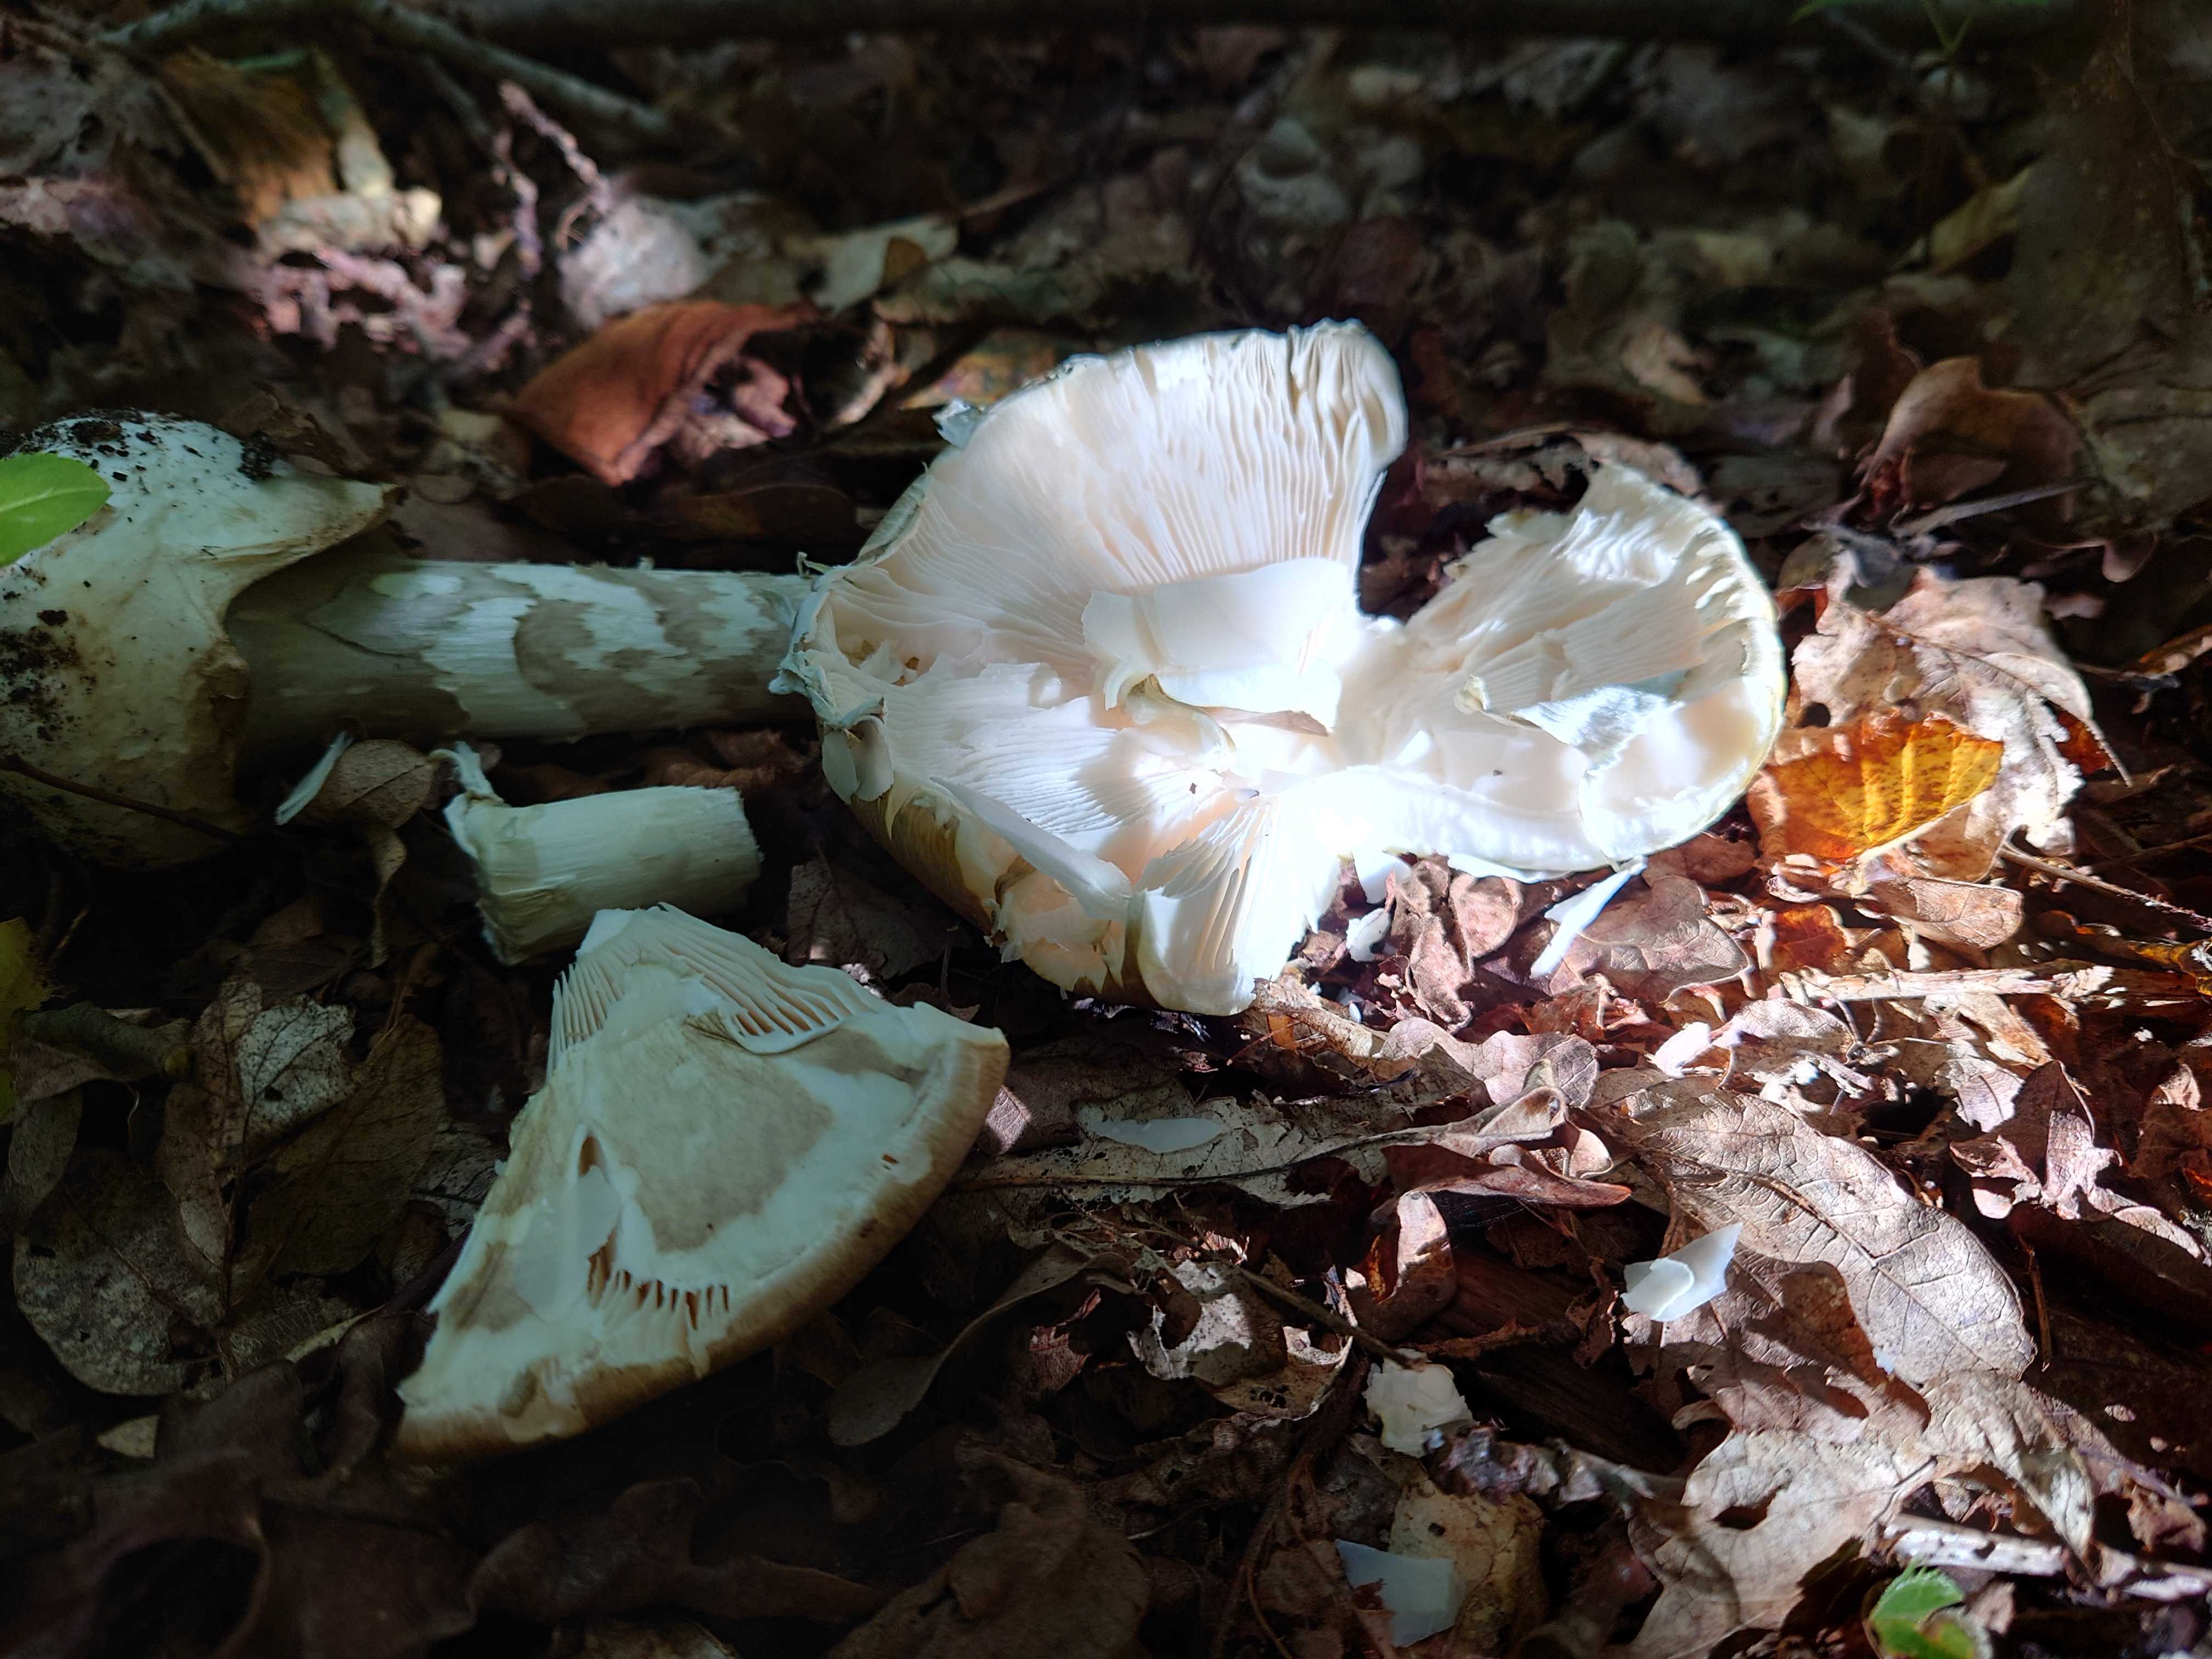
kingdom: Fungi
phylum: Basidiomycota
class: Agaricomycetes
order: Agaricales
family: Amanitaceae
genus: Amanita
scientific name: Amanita phalloides
